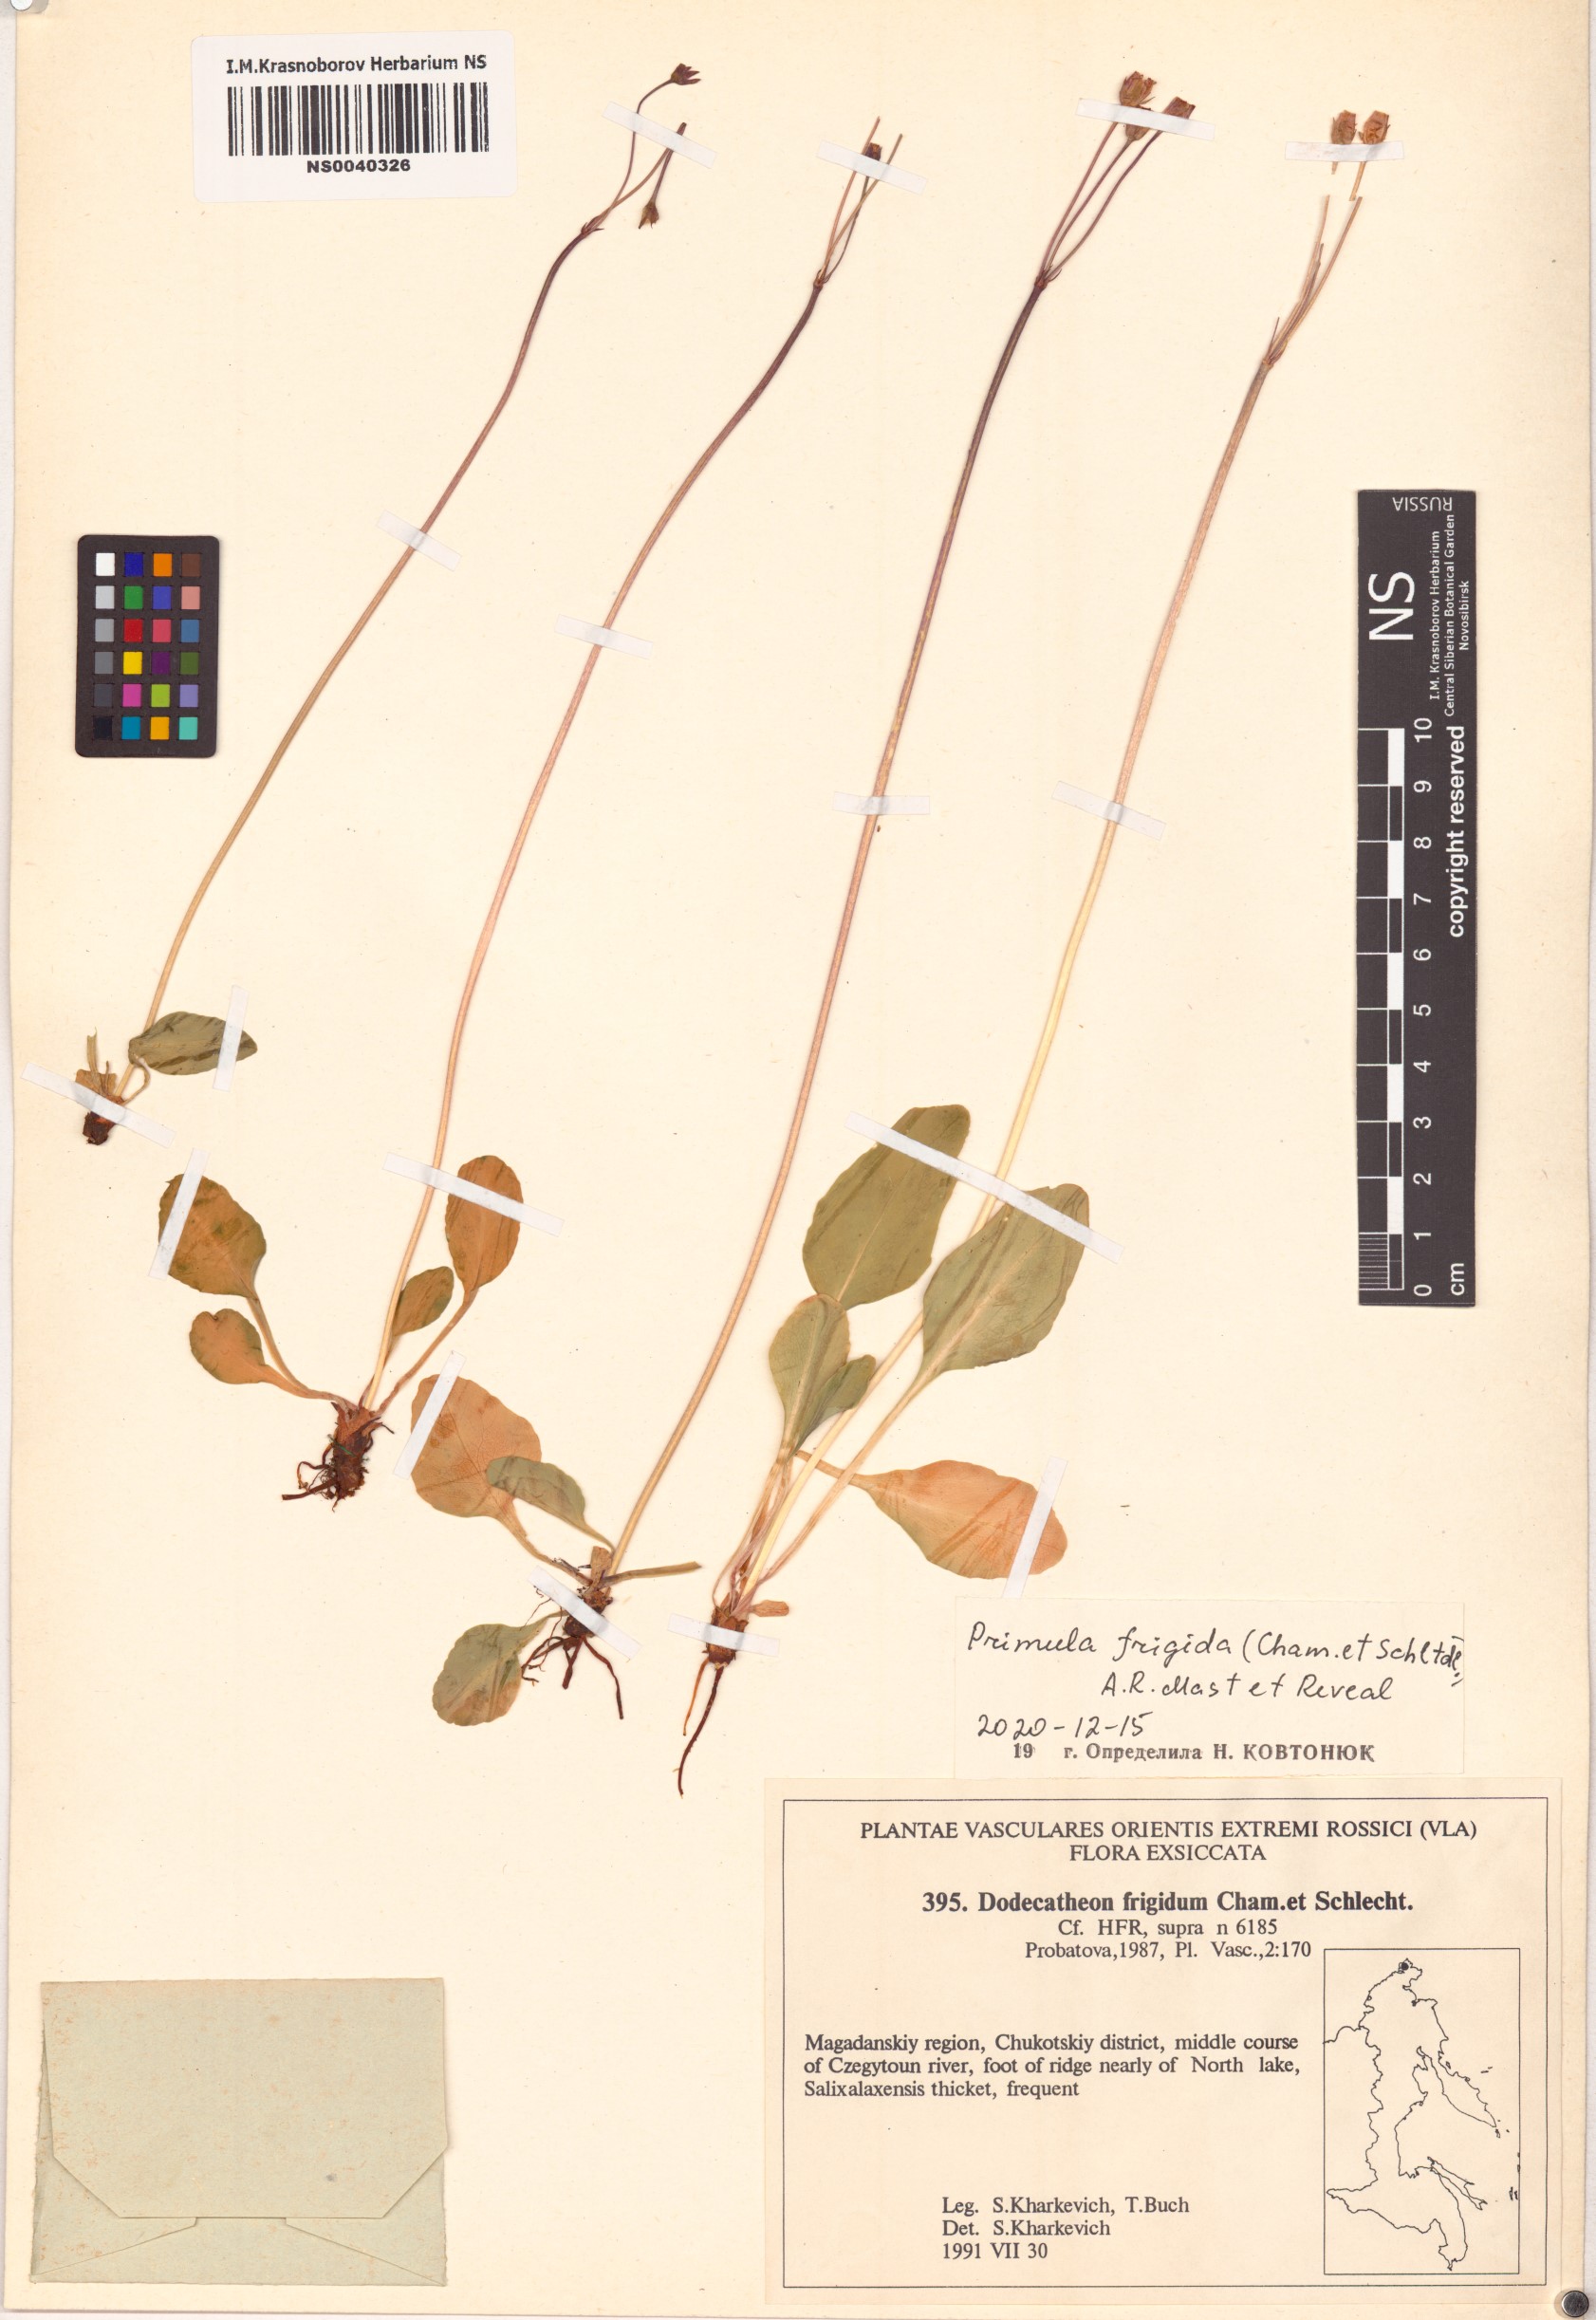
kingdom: Plantae
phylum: Tracheophyta
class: Magnoliopsida
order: Ericales
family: Primulaceae
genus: Dodecatheon
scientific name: Dodecatheon frigidum
